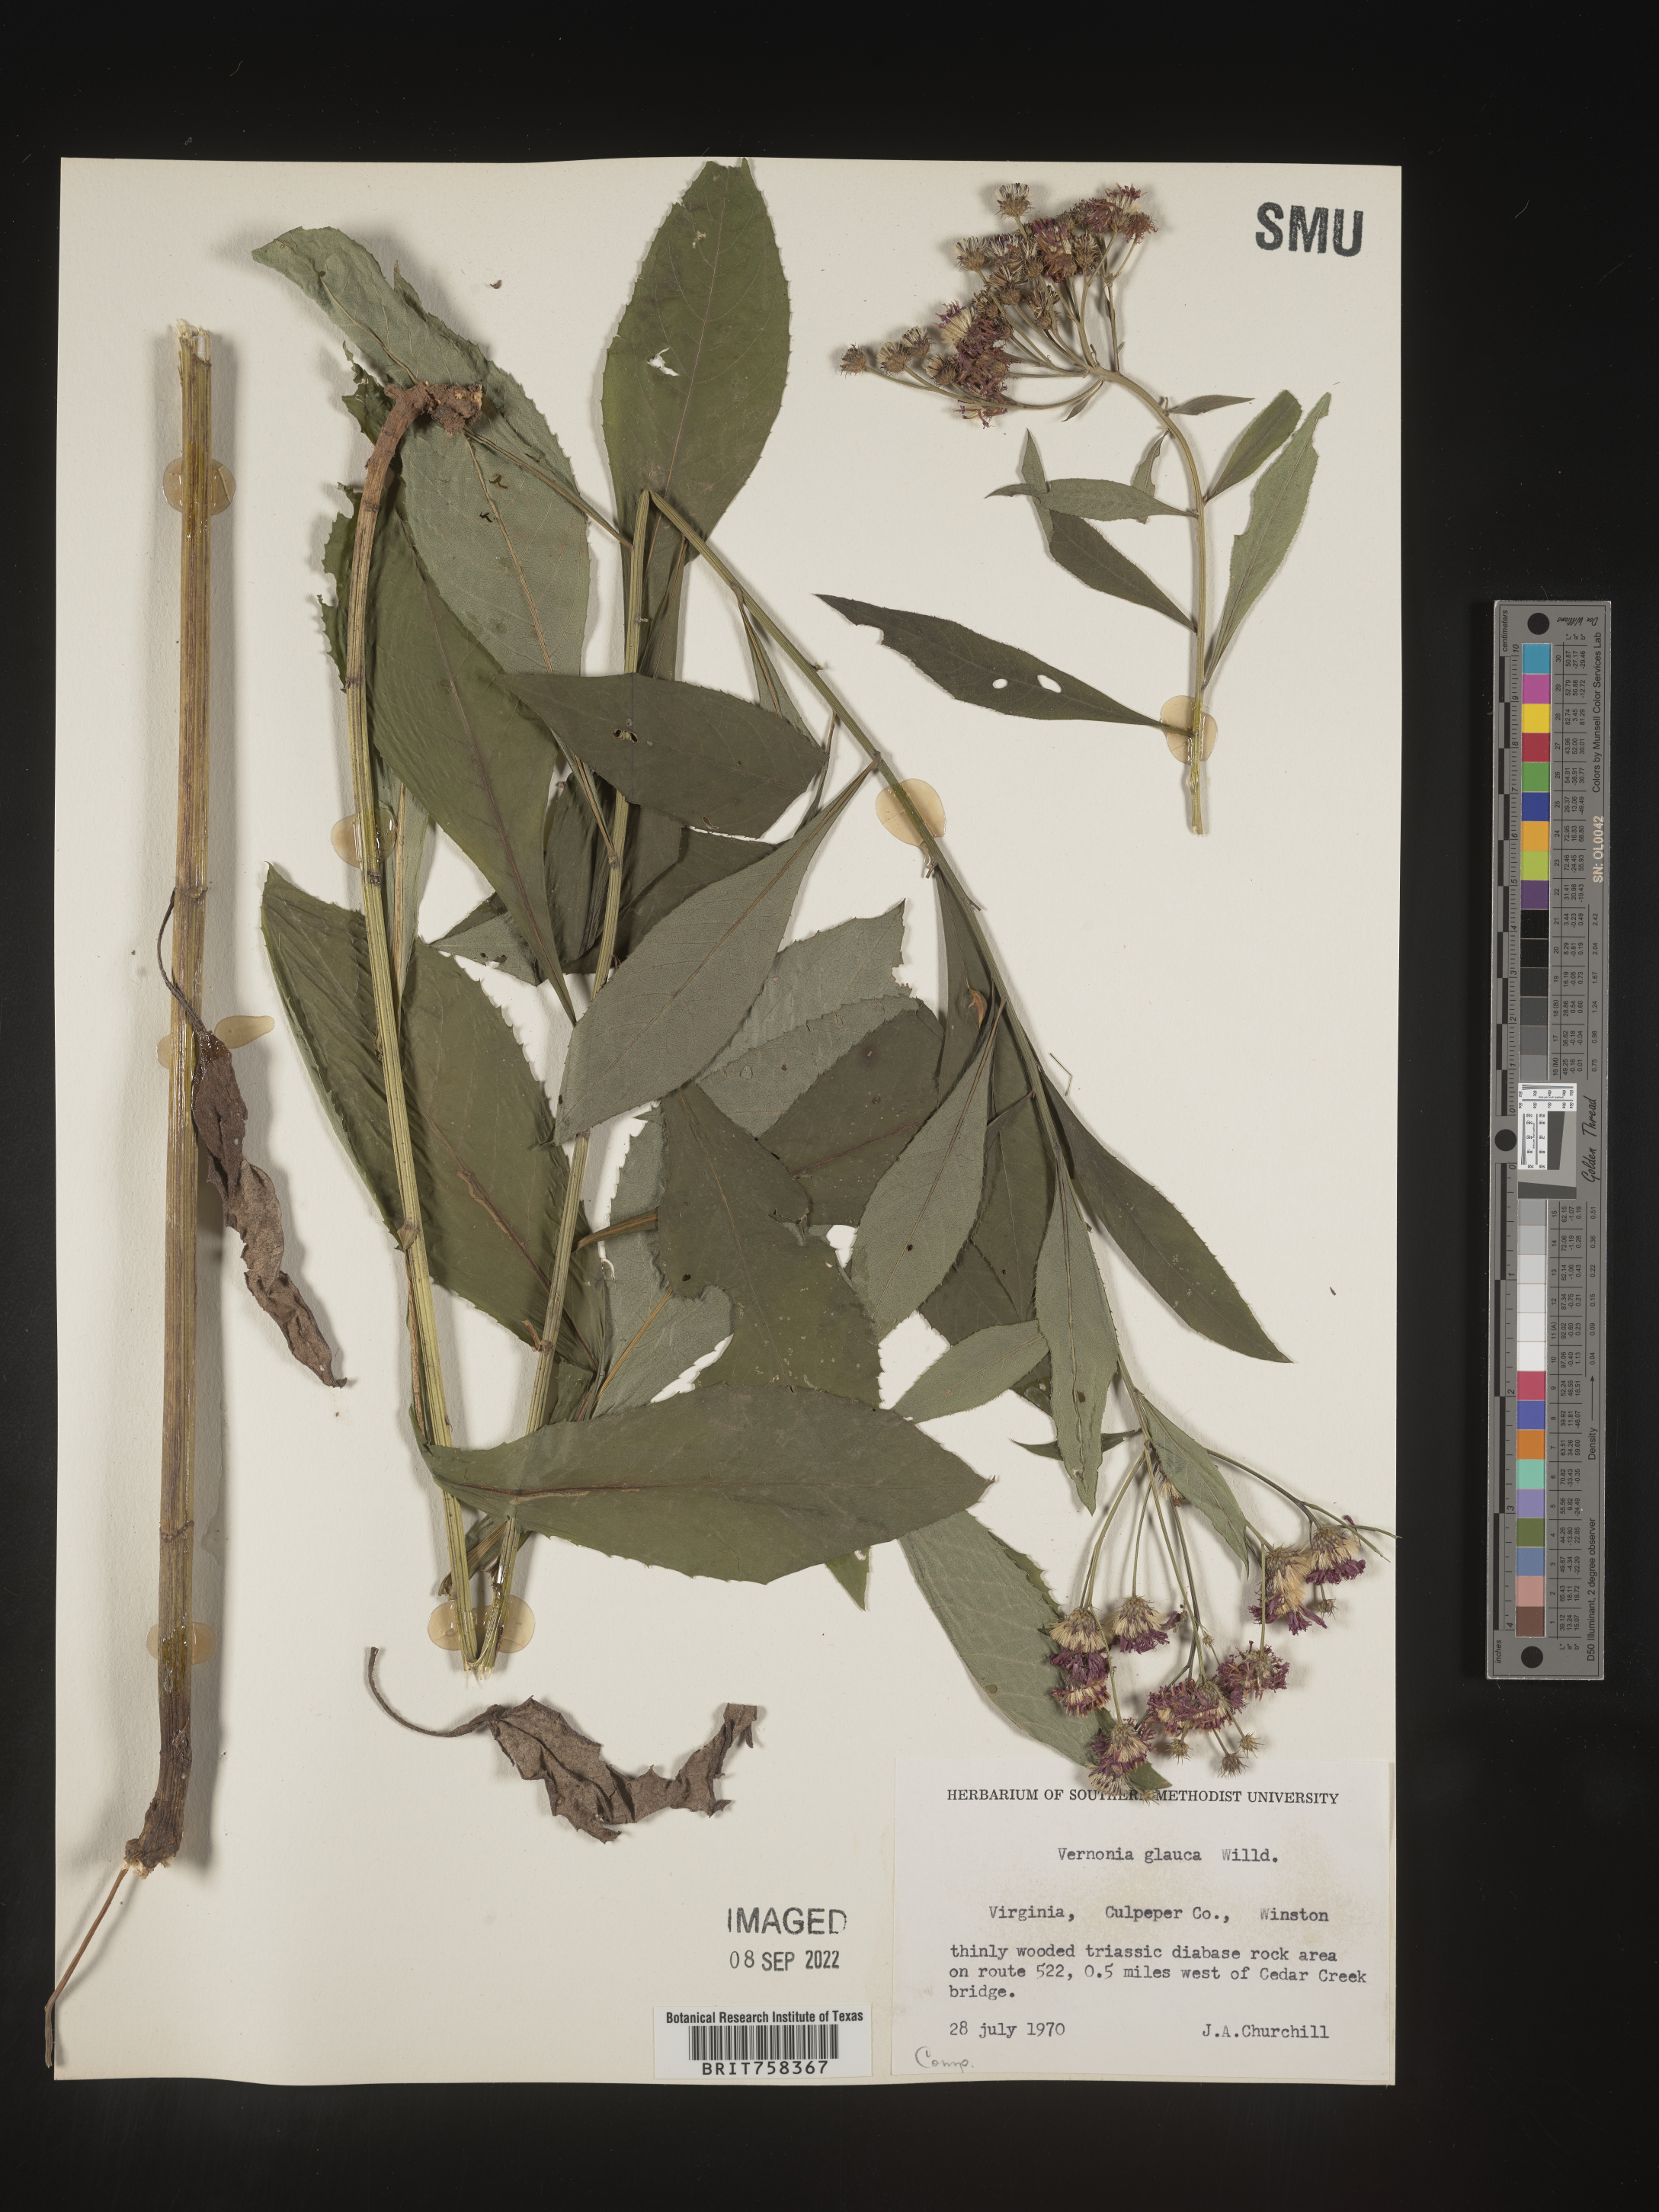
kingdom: Plantae
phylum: Tracheophyta
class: Magnoliopsida
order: Asterales
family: Asteraceae
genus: Vernonia
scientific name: Vernonia glauca
